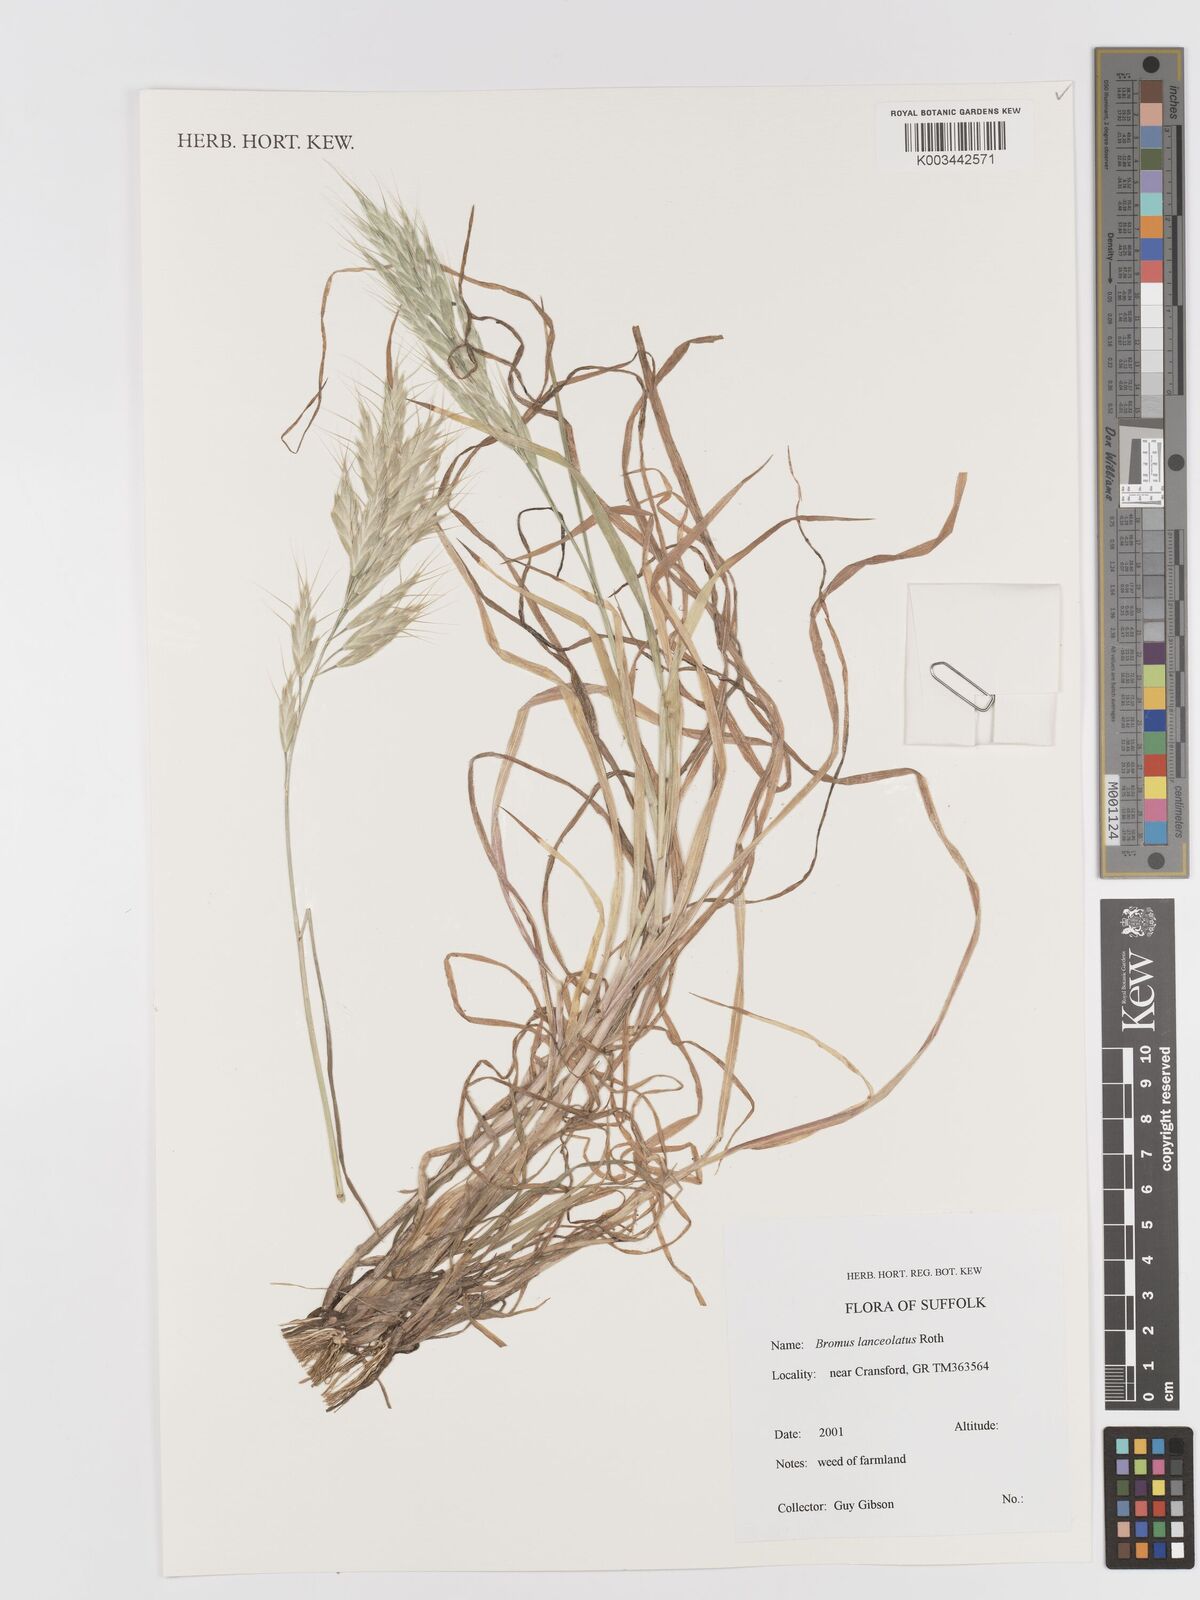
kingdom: Plantae
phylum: Tracheophyta
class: Liliopsida
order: Poales
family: Poaceae
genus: Bromus
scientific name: Bromus lanceolatus
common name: Mediterranean brome
